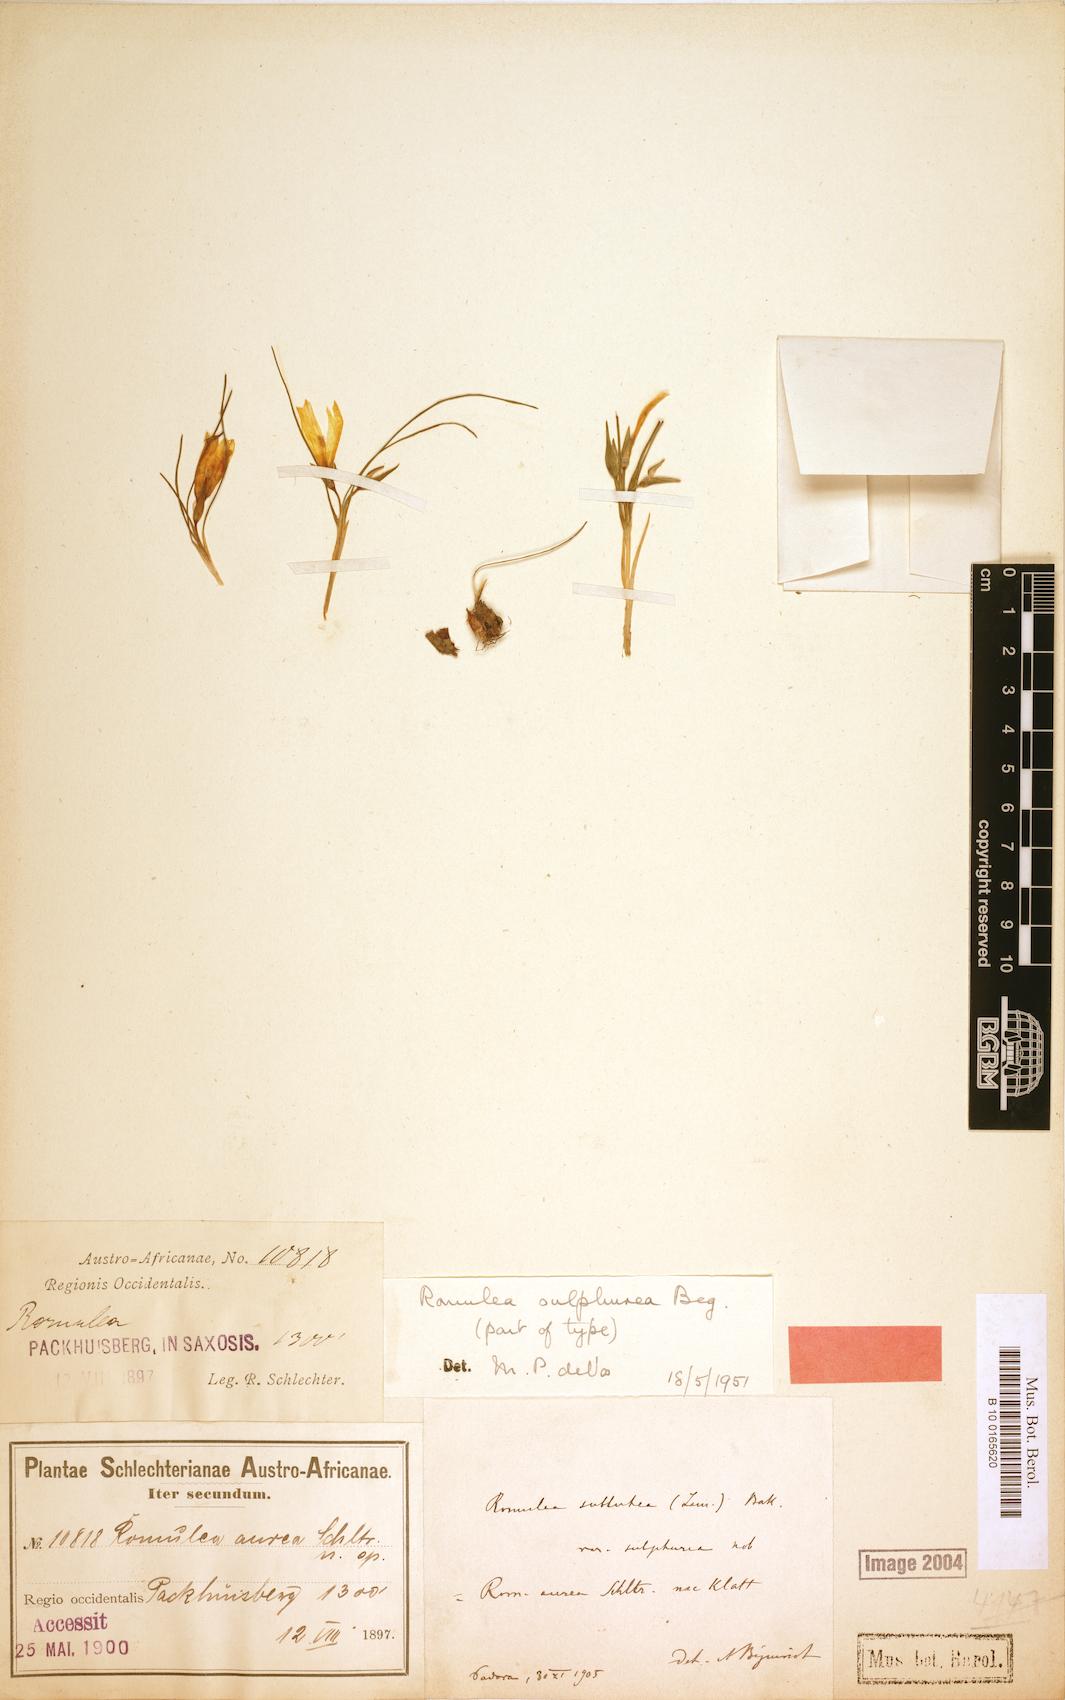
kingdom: Plantae
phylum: Tracheophyta
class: Liliopsida
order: Asparagales
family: Iridaceae
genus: Romulea
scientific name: Romulea sulphurea
